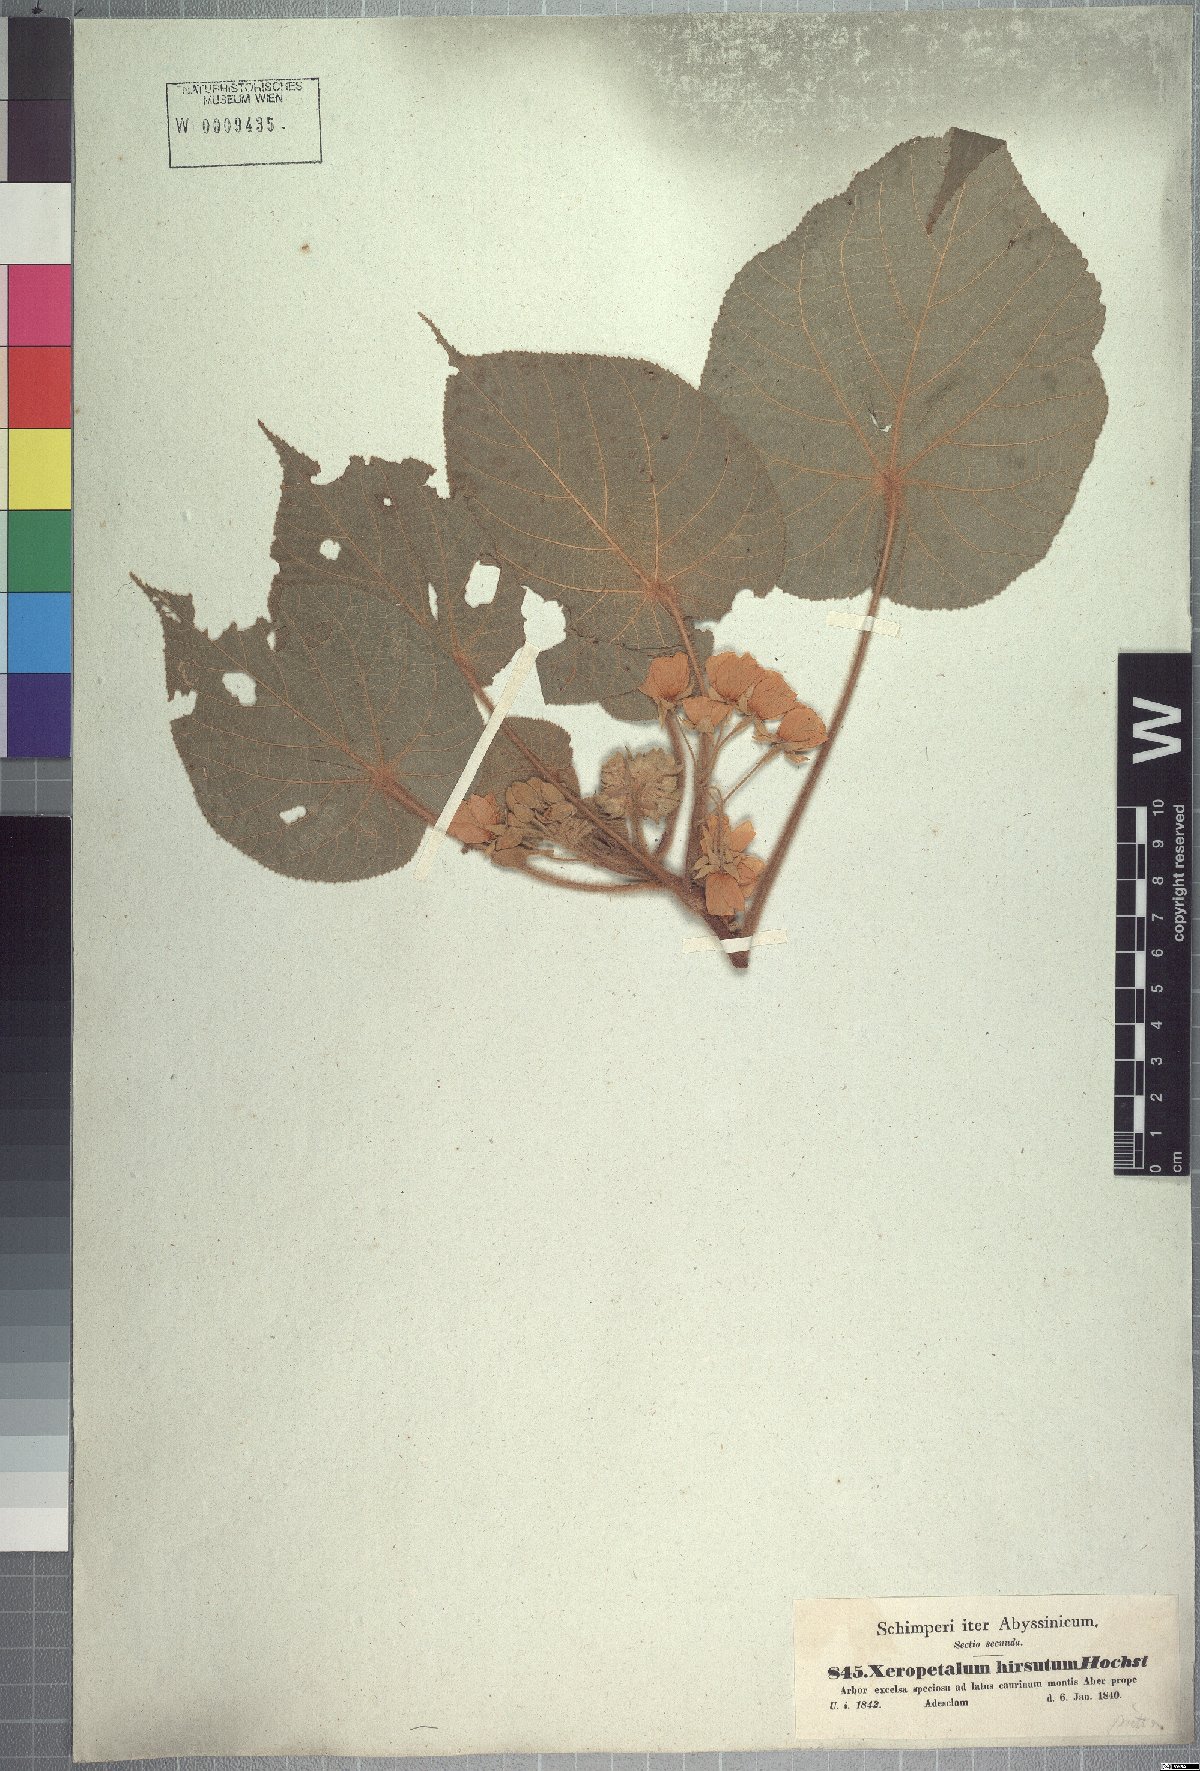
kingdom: Plantae
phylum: Tracheophyta
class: Magnoliopsida
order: Malvales
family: Malvaceae
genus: Dombeya
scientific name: Dombeya torrida
